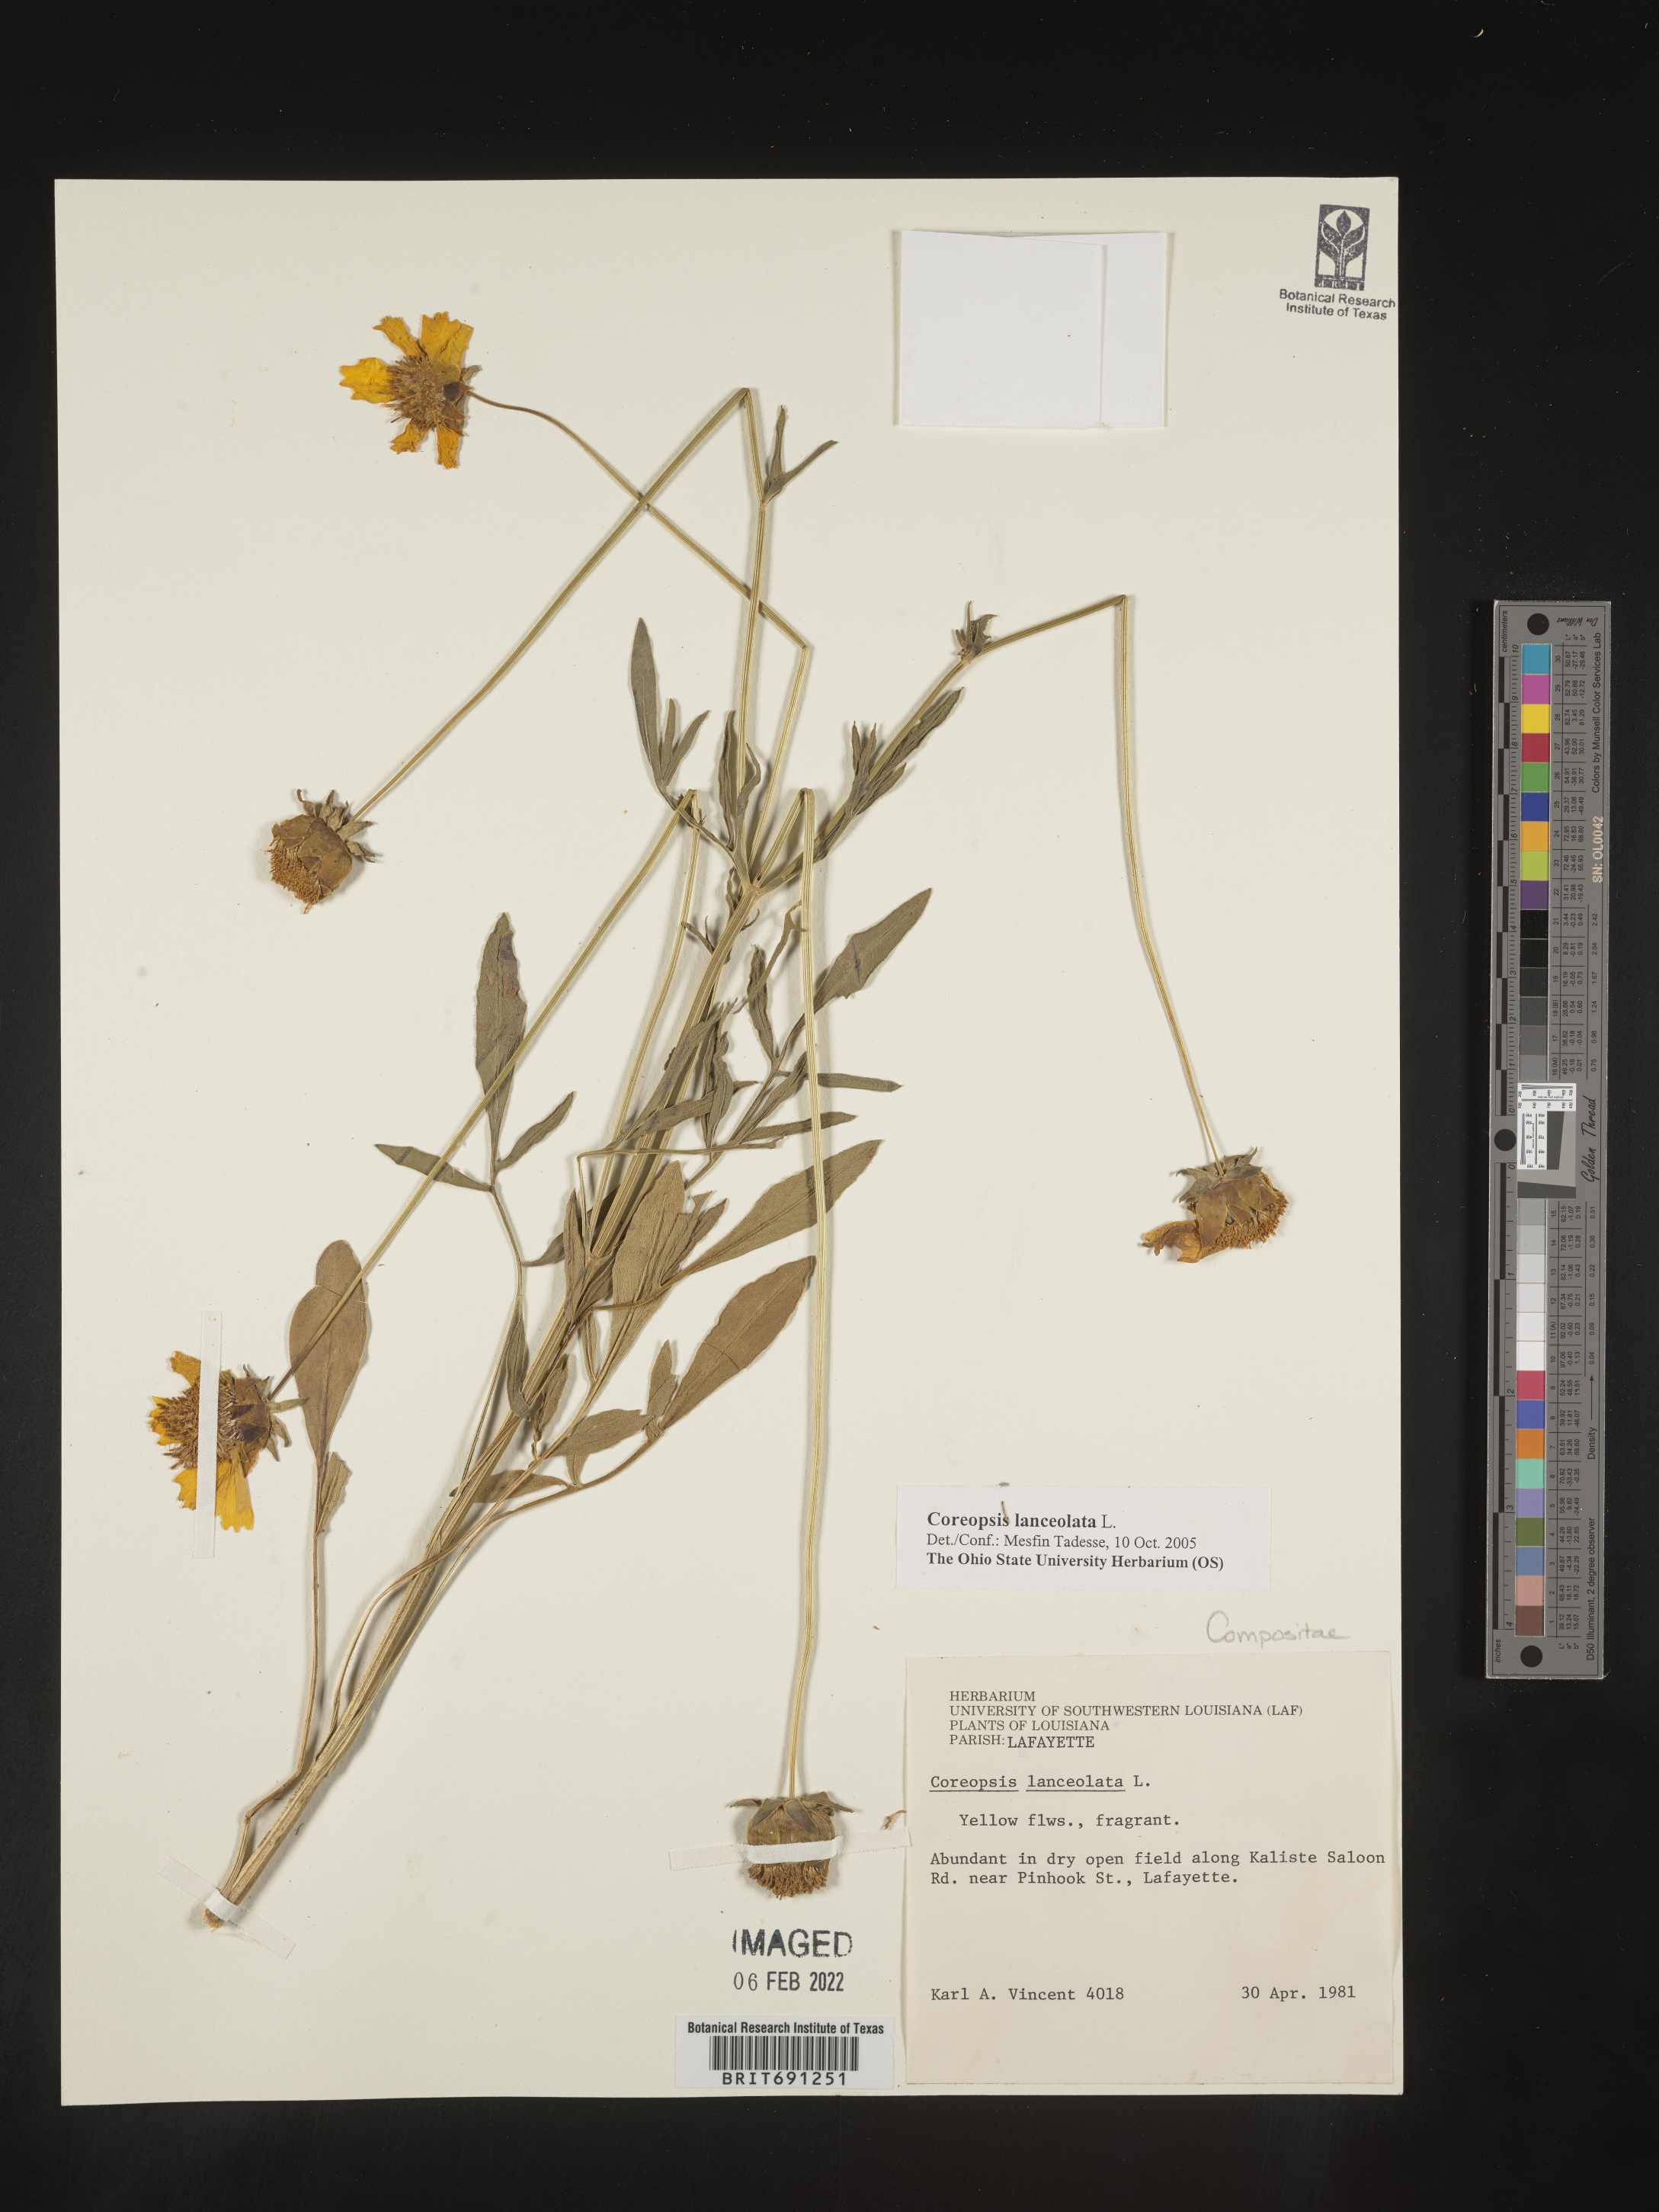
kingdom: Plantae
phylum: Tracheophyta
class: Magnoliopsida
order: Asterales
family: Asteraceae
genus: Coreopsis
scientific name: Coreopsis lanceolata
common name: Garden coreopsis
